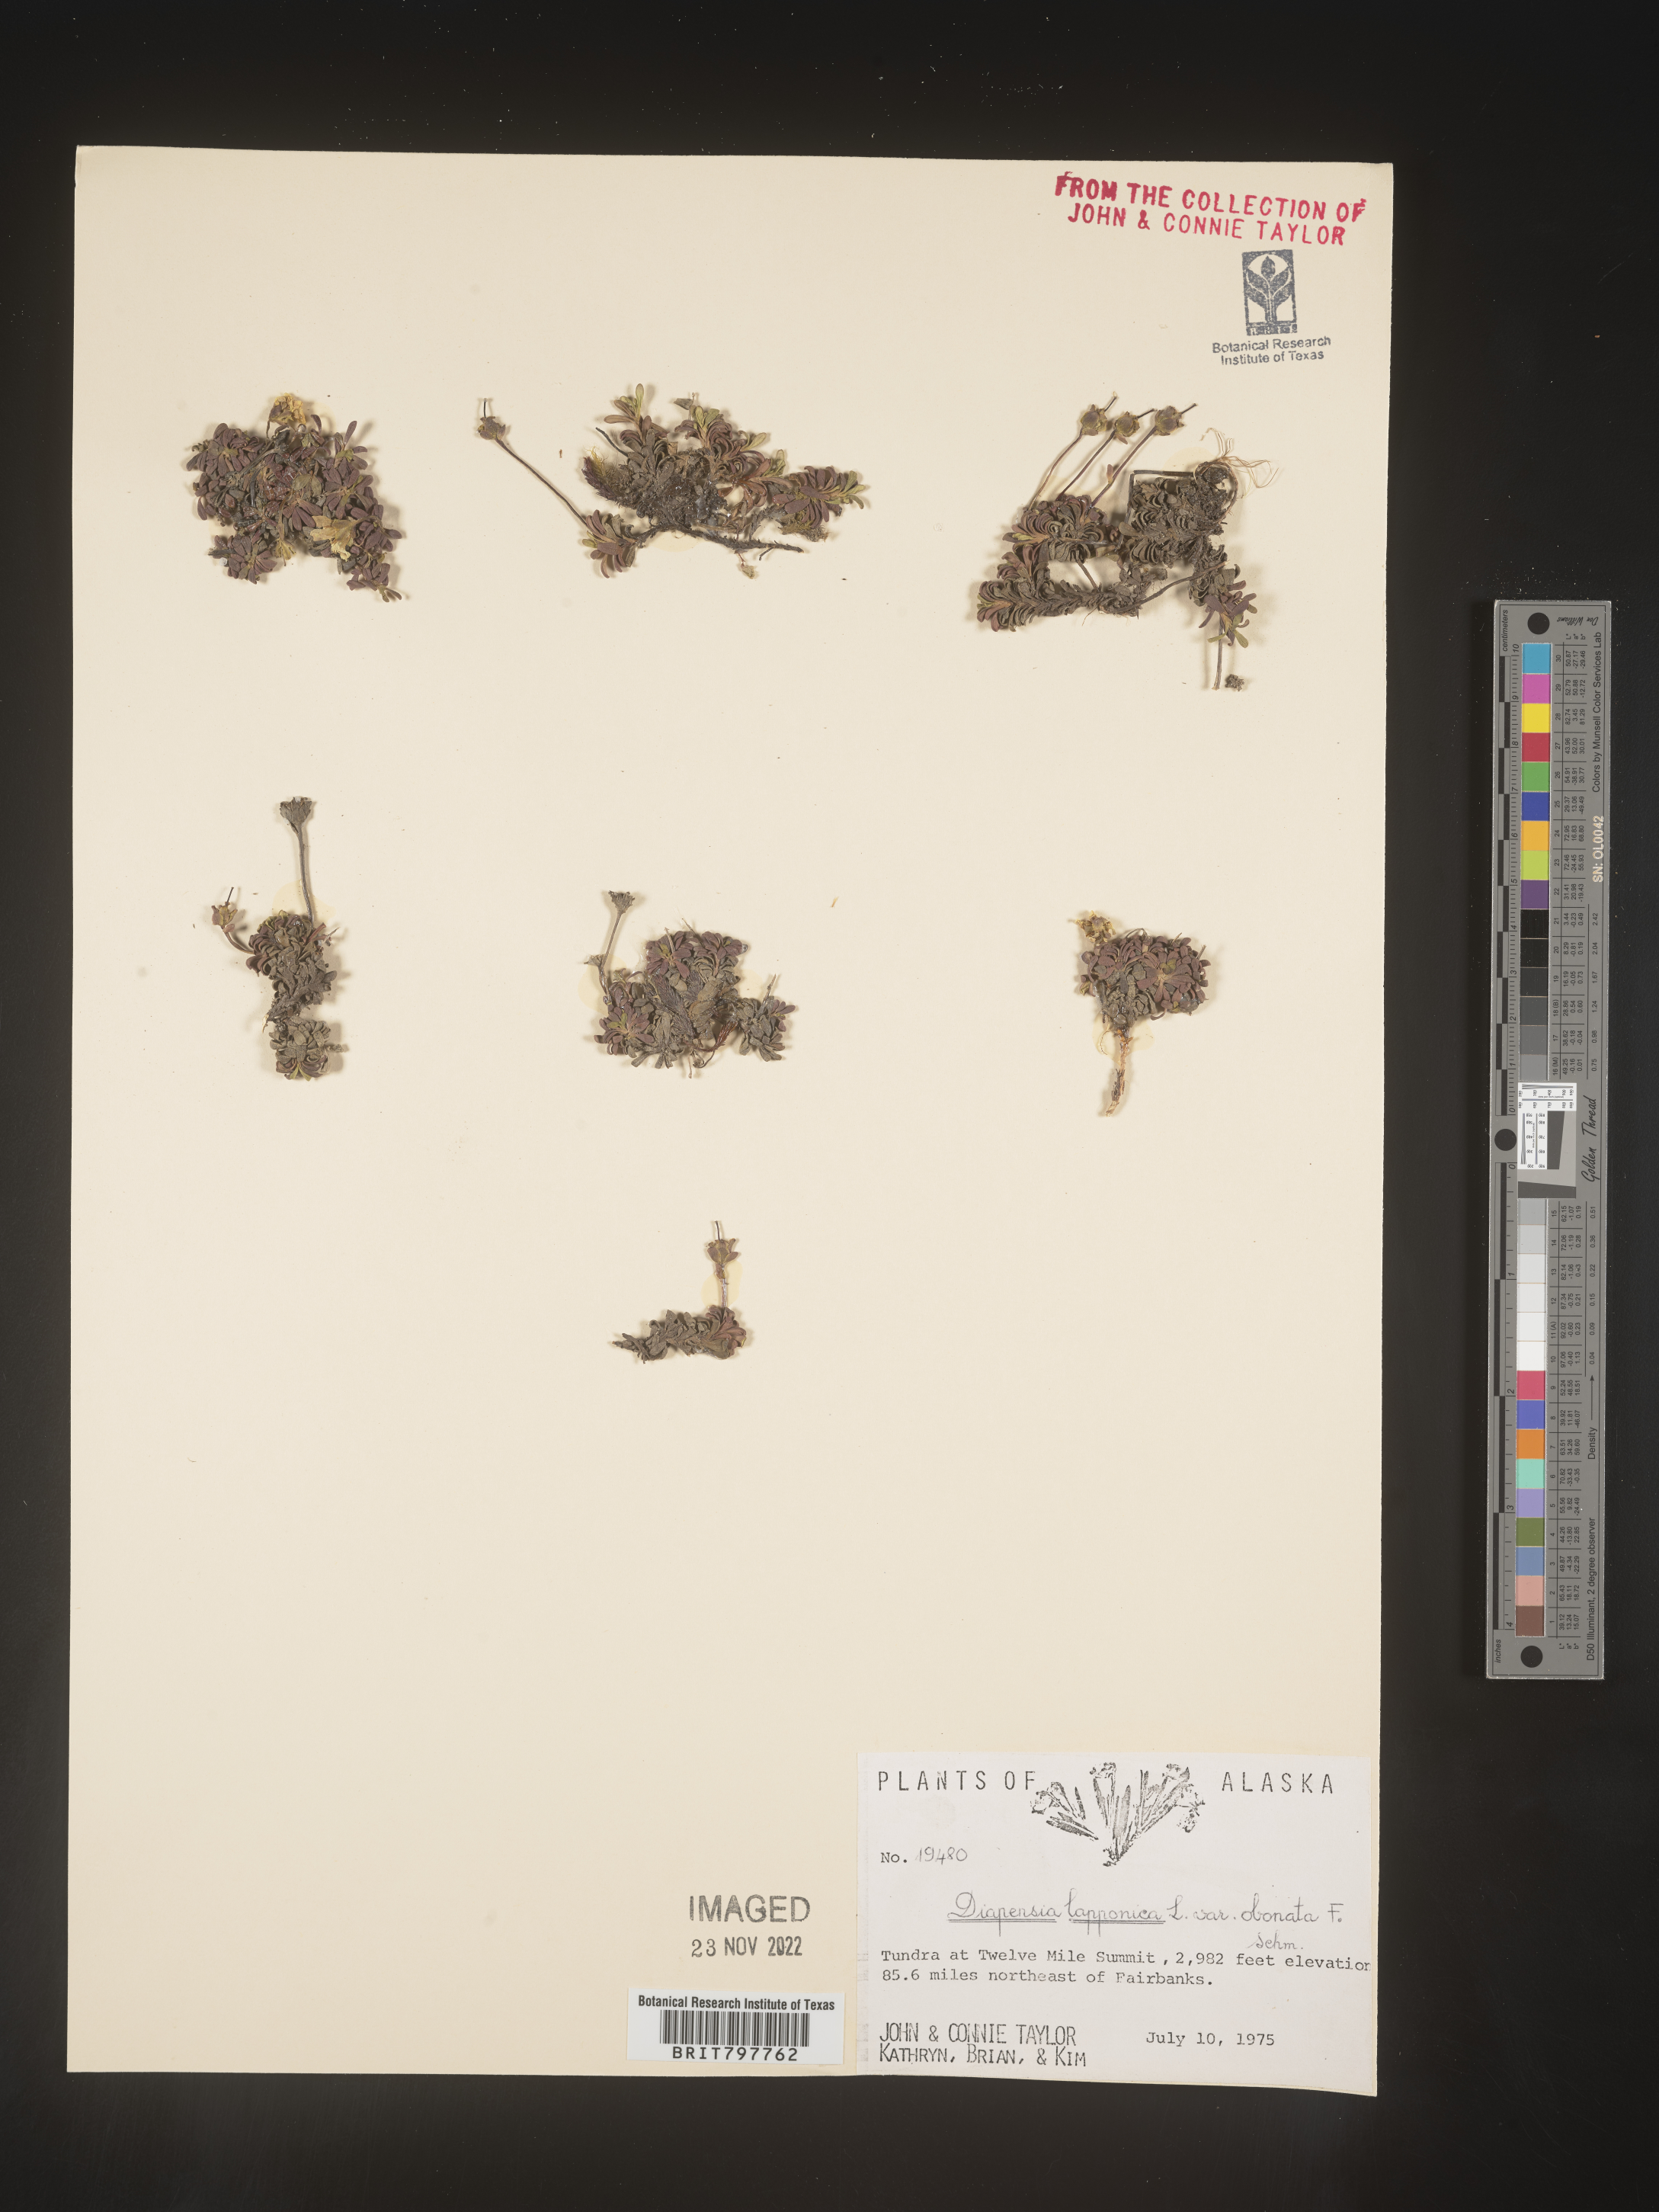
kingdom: Plantae
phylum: Tracheophyta
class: Magnoliopsida
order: Ericales
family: Diapensiaceae
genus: Diapensia
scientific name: Diapensia obovata
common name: Alaska diapensia
